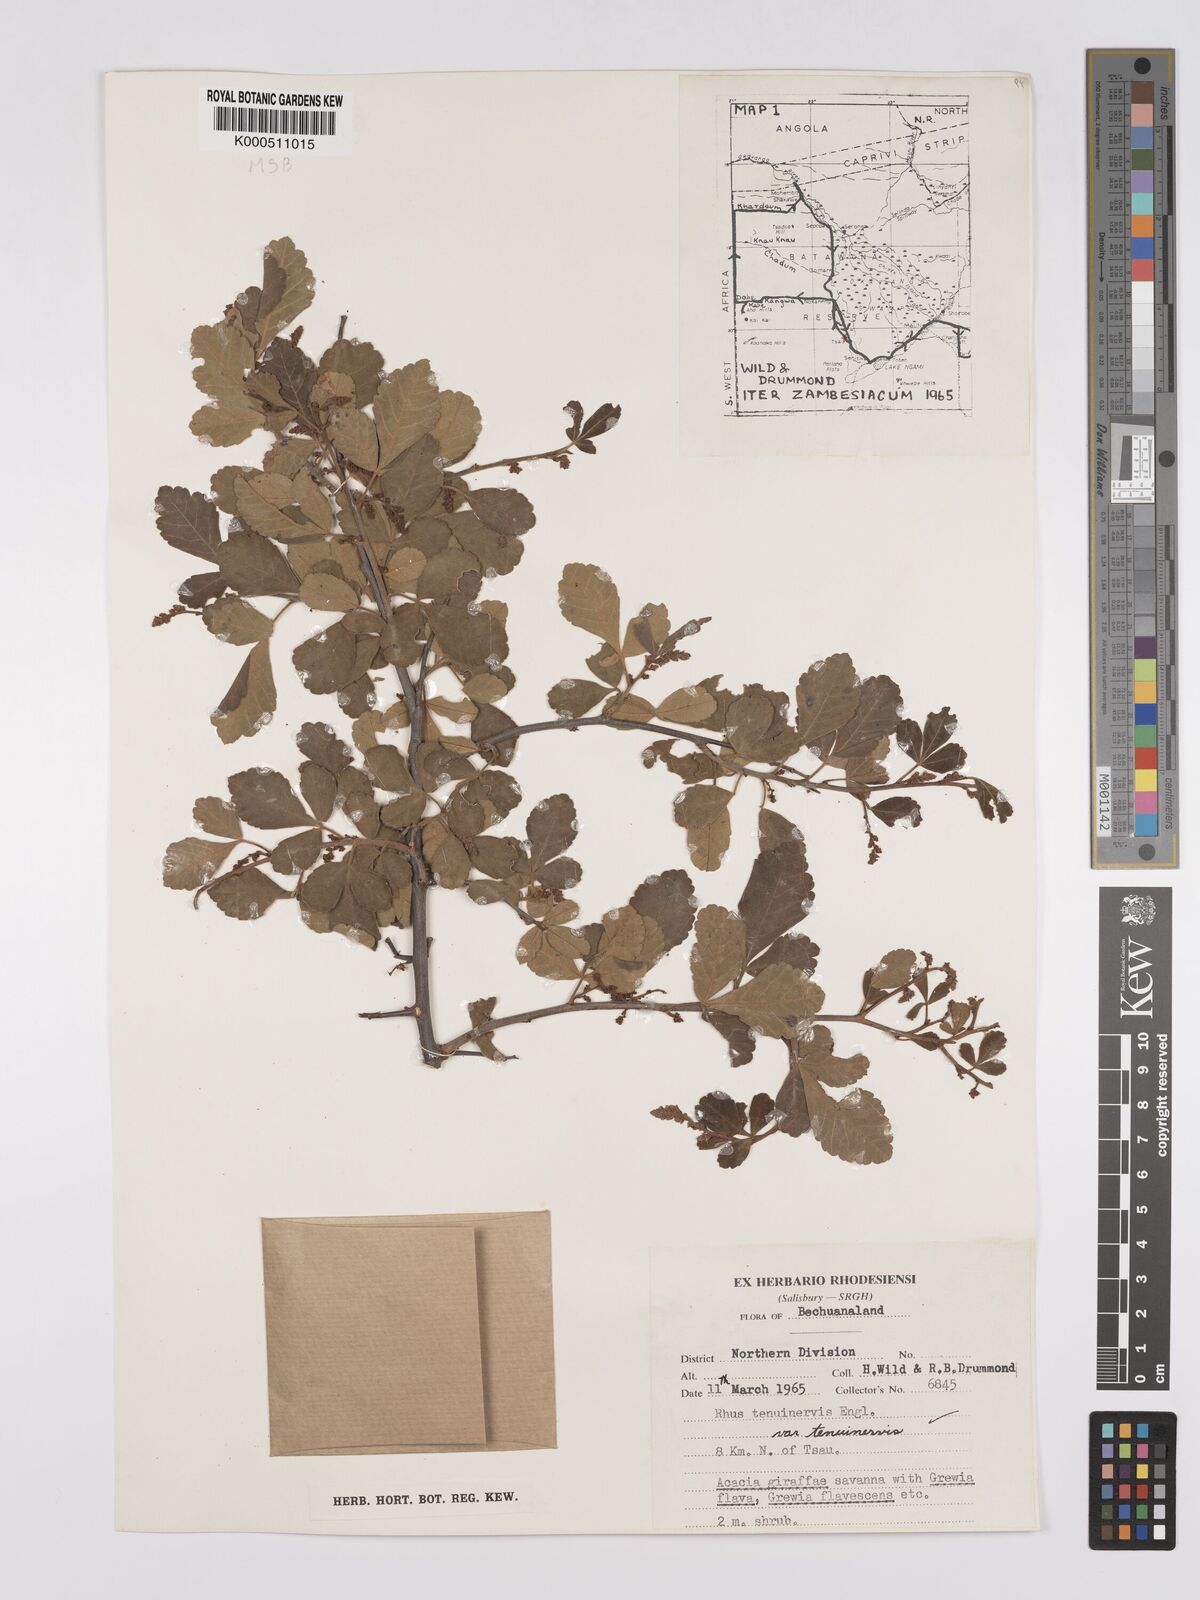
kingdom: Plantae
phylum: Tracheophyta
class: Magnoliopsida
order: Sapindales
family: Anacardiaceae
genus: Searsia
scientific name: Searsia tenuinervis
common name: Hyaena taaibos
